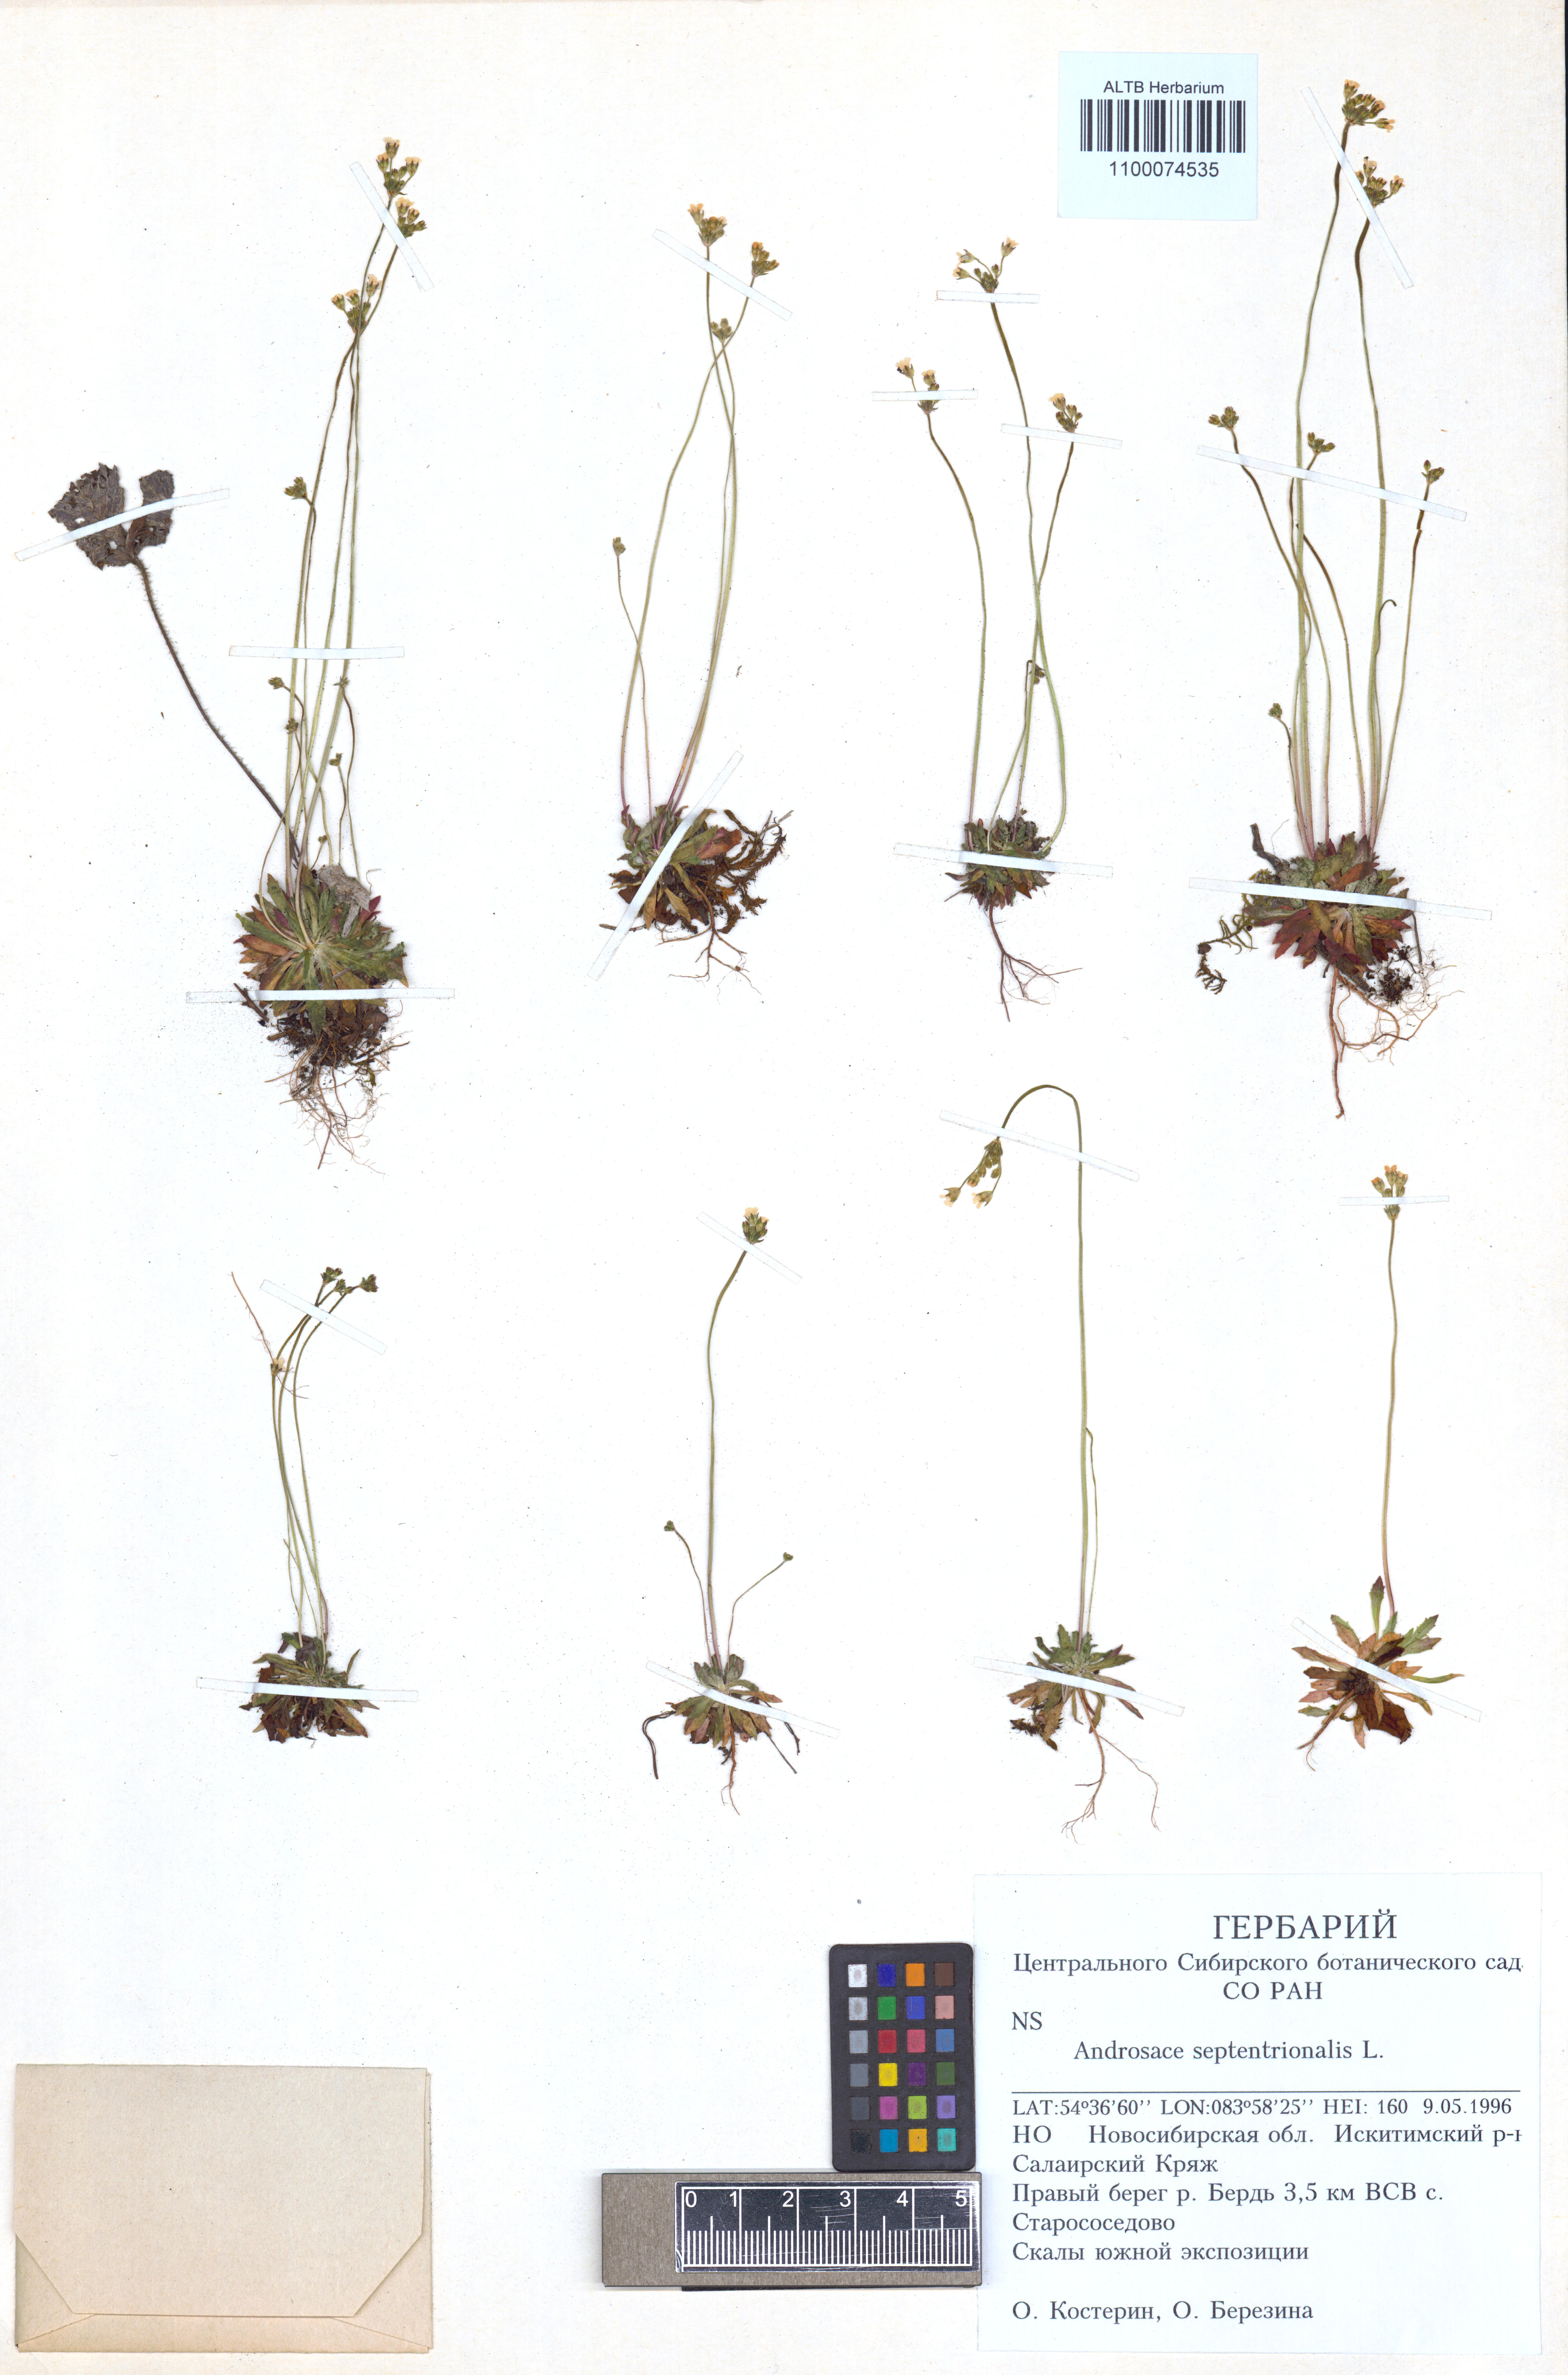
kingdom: Plantae
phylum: Tracheophyta
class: Magnoliopsida
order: Ericales
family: Primulaceae
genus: Androsace
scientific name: Androsace septentrionalis
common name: Hairy northern fairy-candelabra
